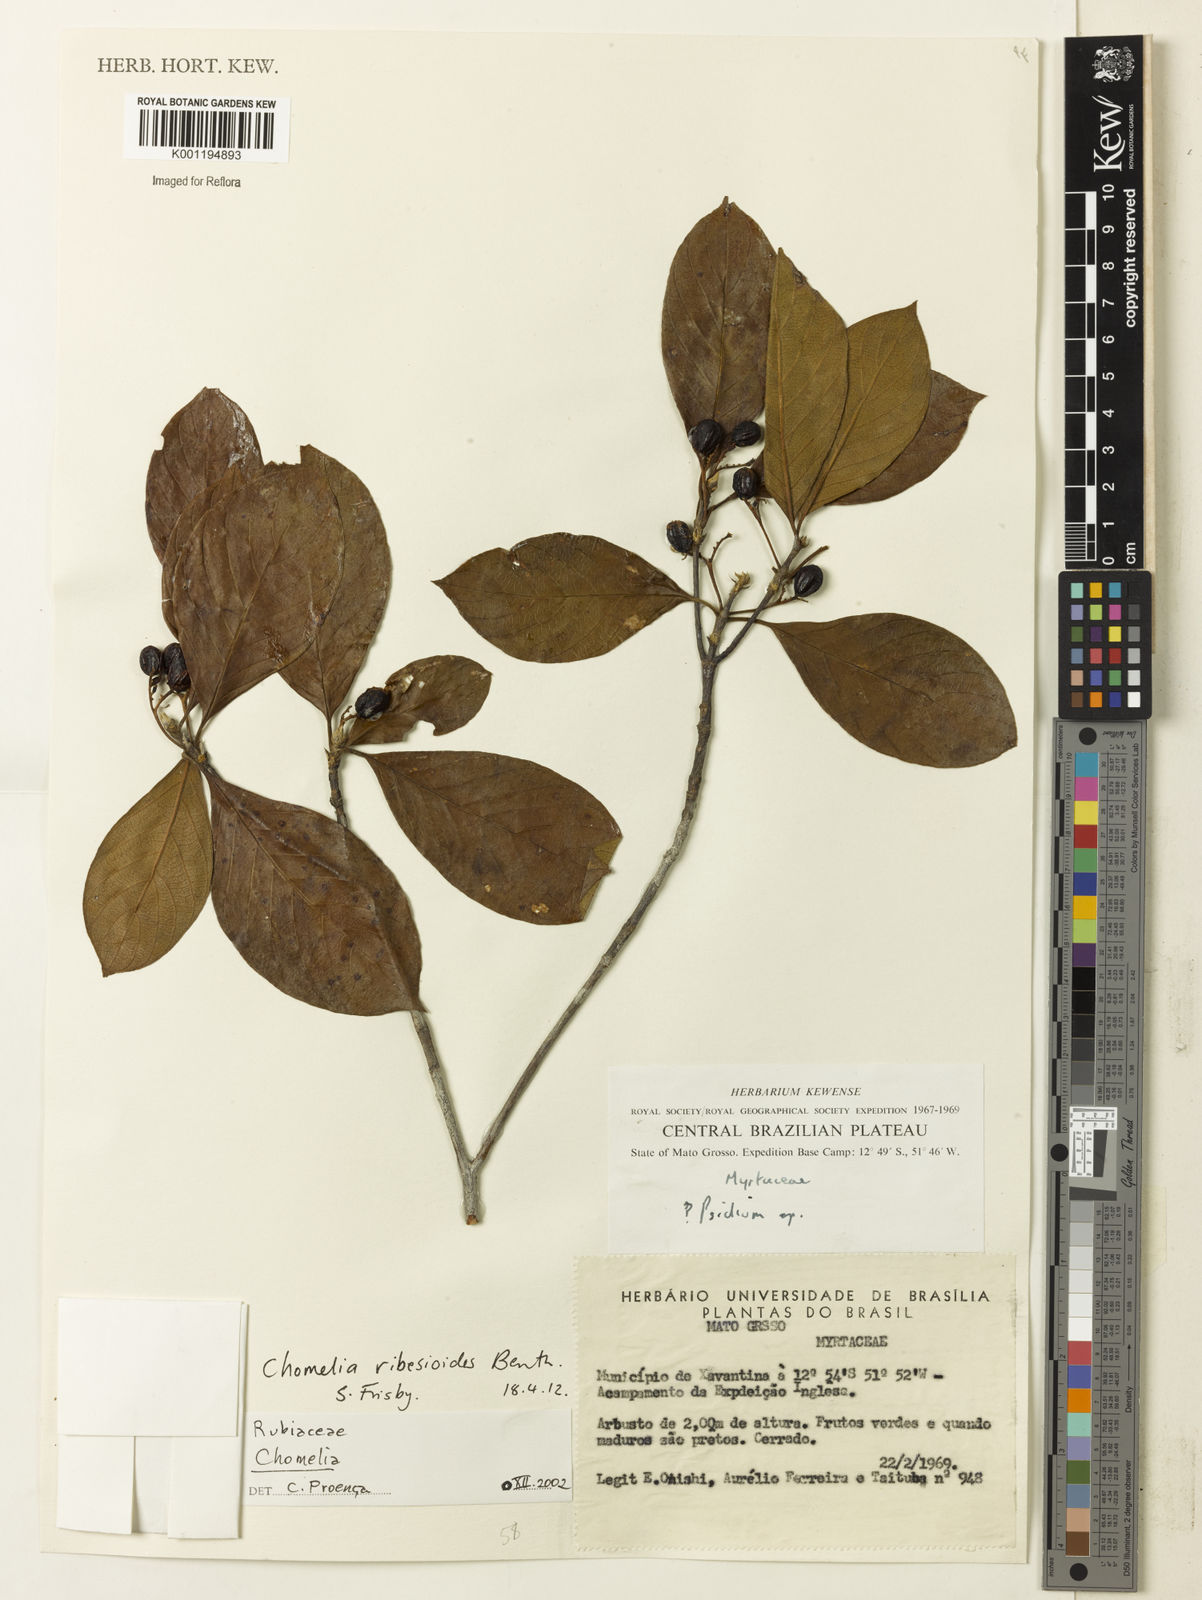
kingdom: Plantae
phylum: Tracheophyta
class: Magnoliopsida
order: Gentianales
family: Rubiaceae
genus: Chomelia
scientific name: Chomelia ribesioides
